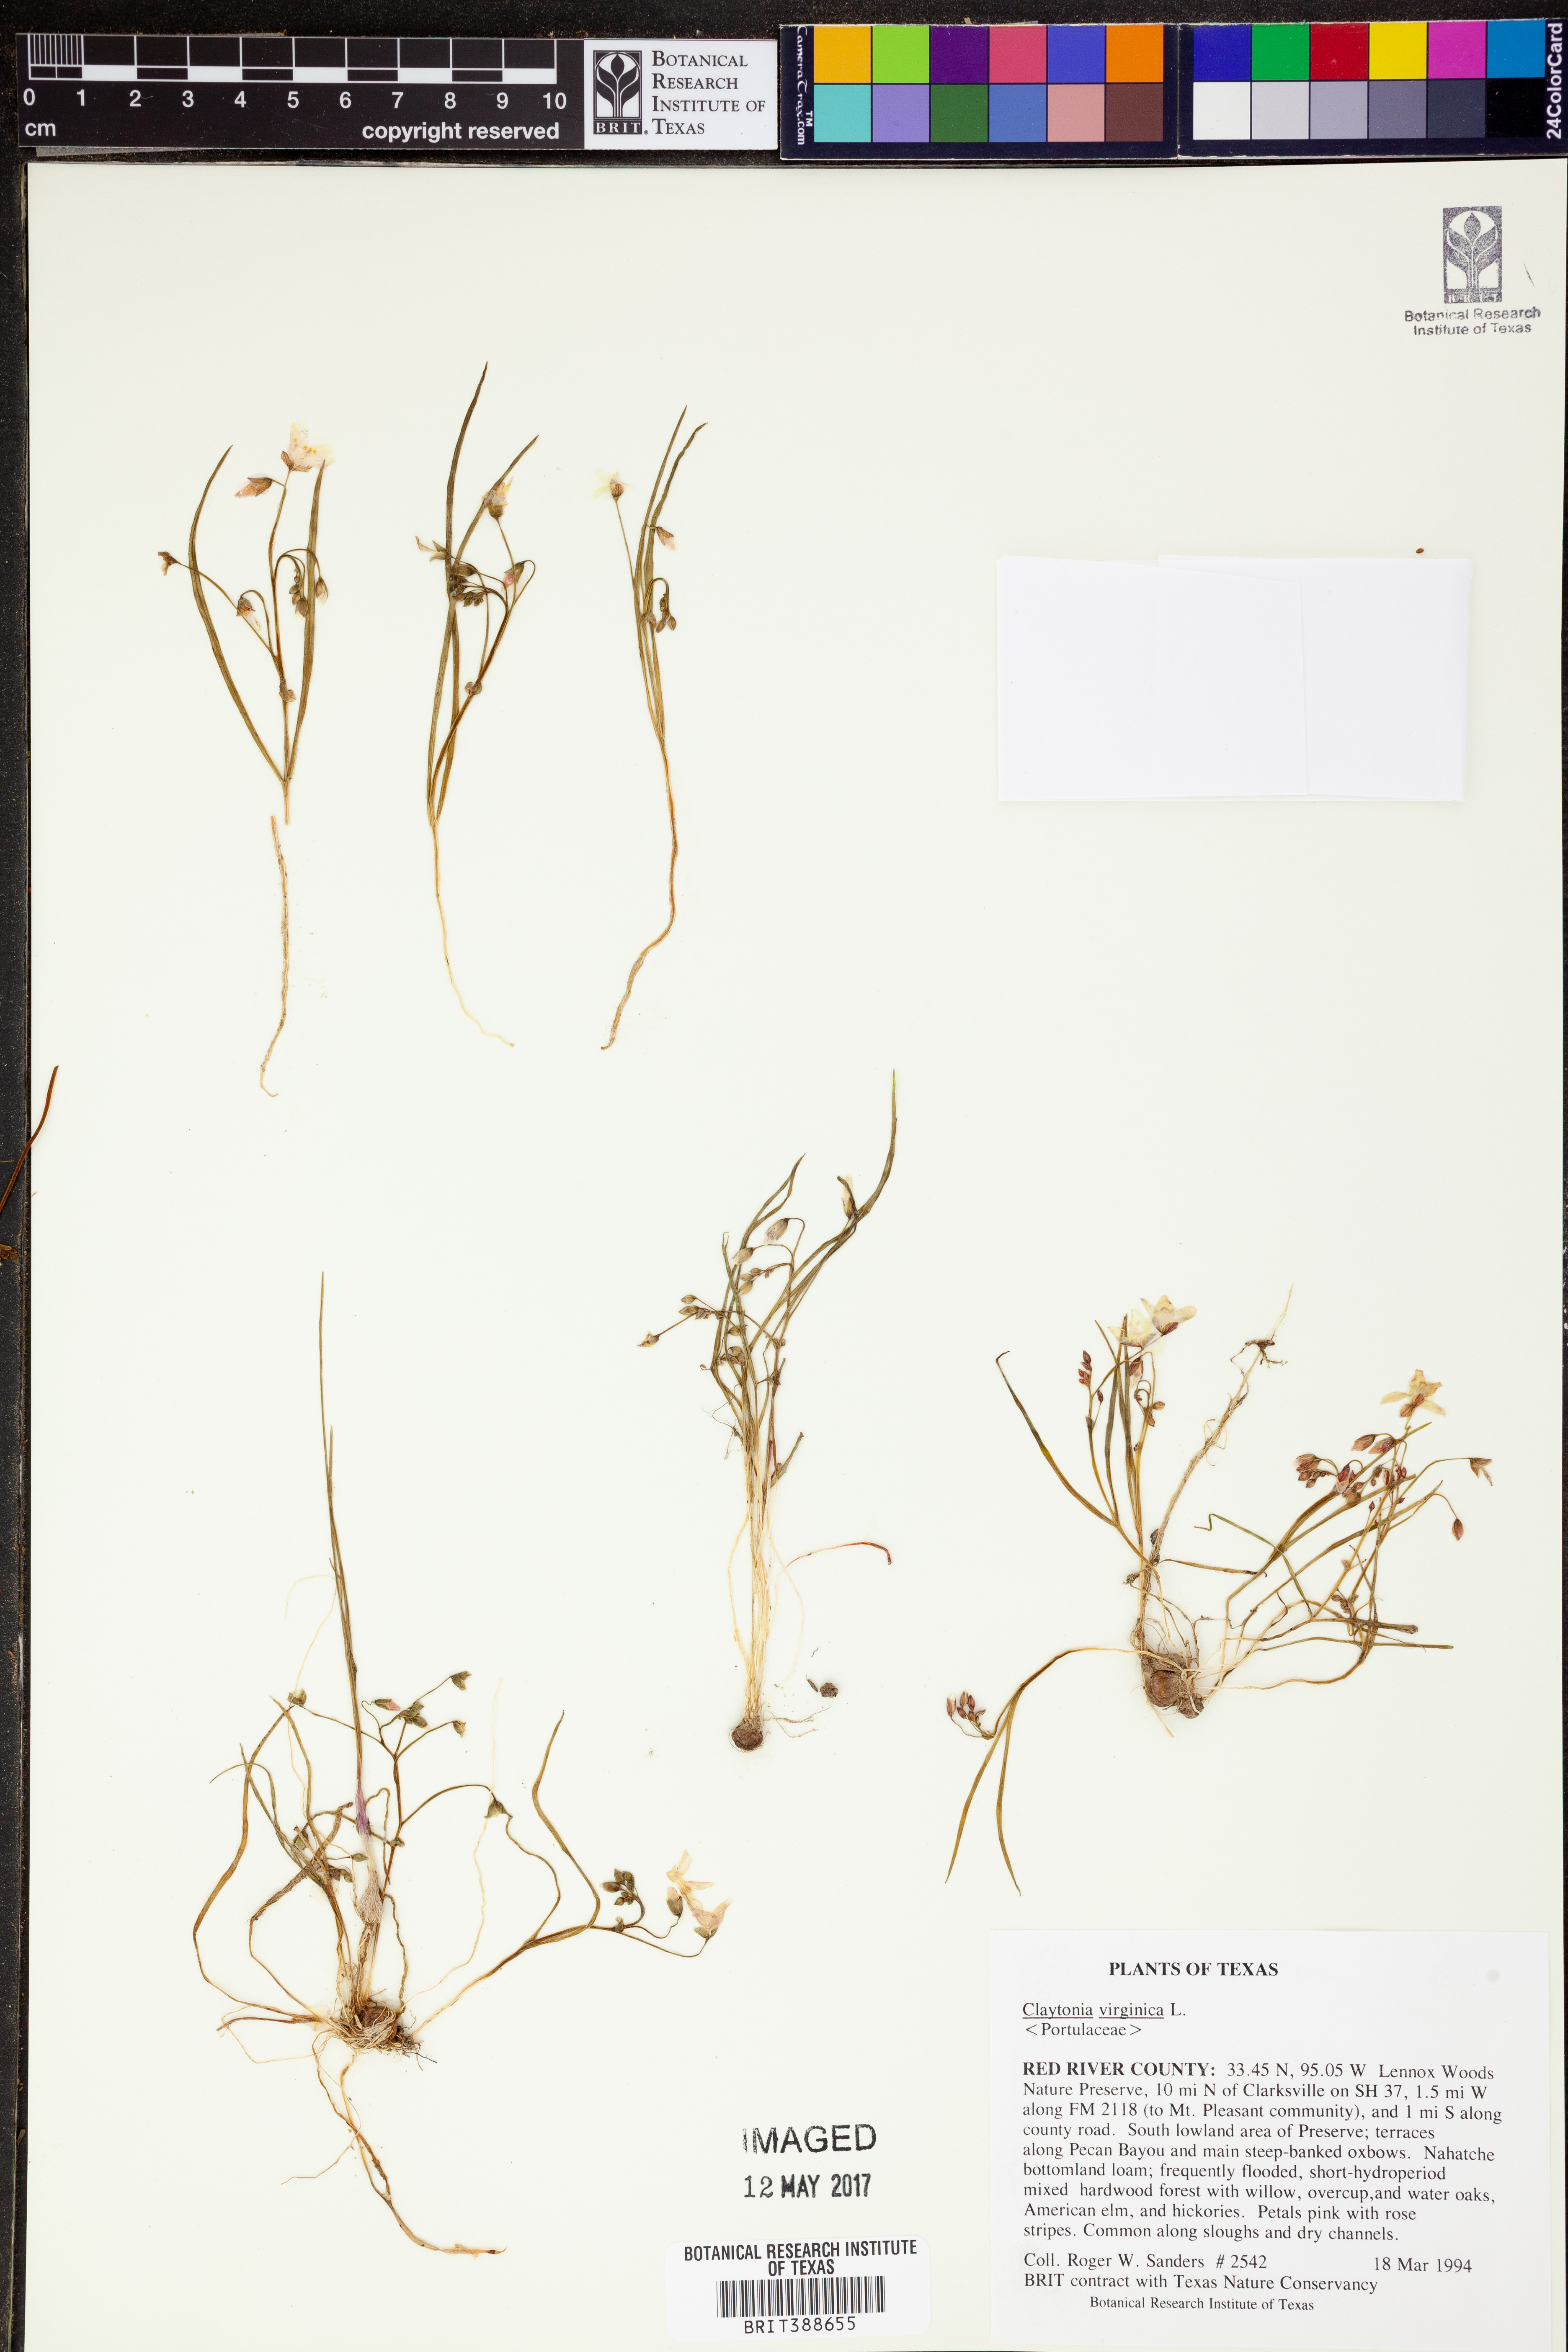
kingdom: Plantae
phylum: Tracheophyta
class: Magnoliopsida
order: Caryophyllales
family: Montiaceae
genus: Claytonia
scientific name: Claytonia virginica
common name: Virginia springbeauty
